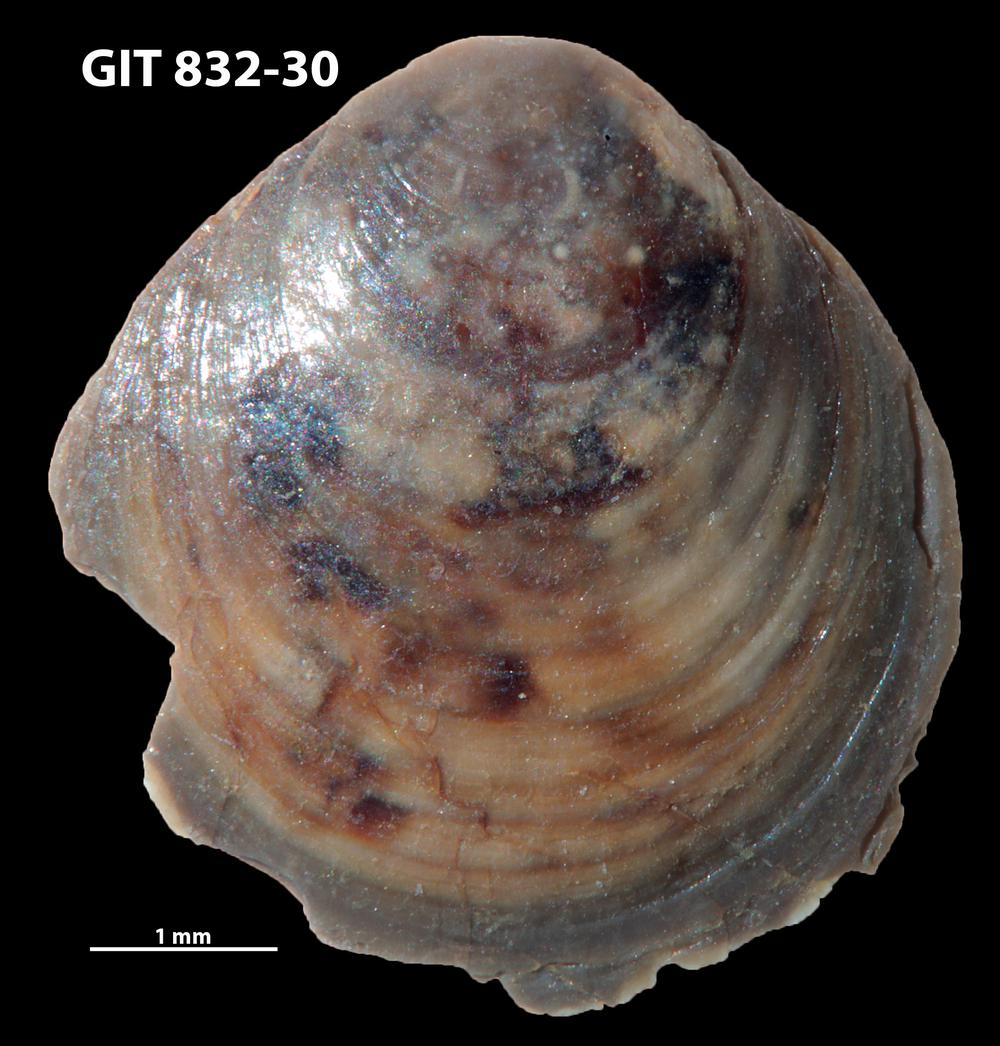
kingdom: Animalia
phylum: Brachiopoda
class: Lingulata
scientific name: Lingulata
